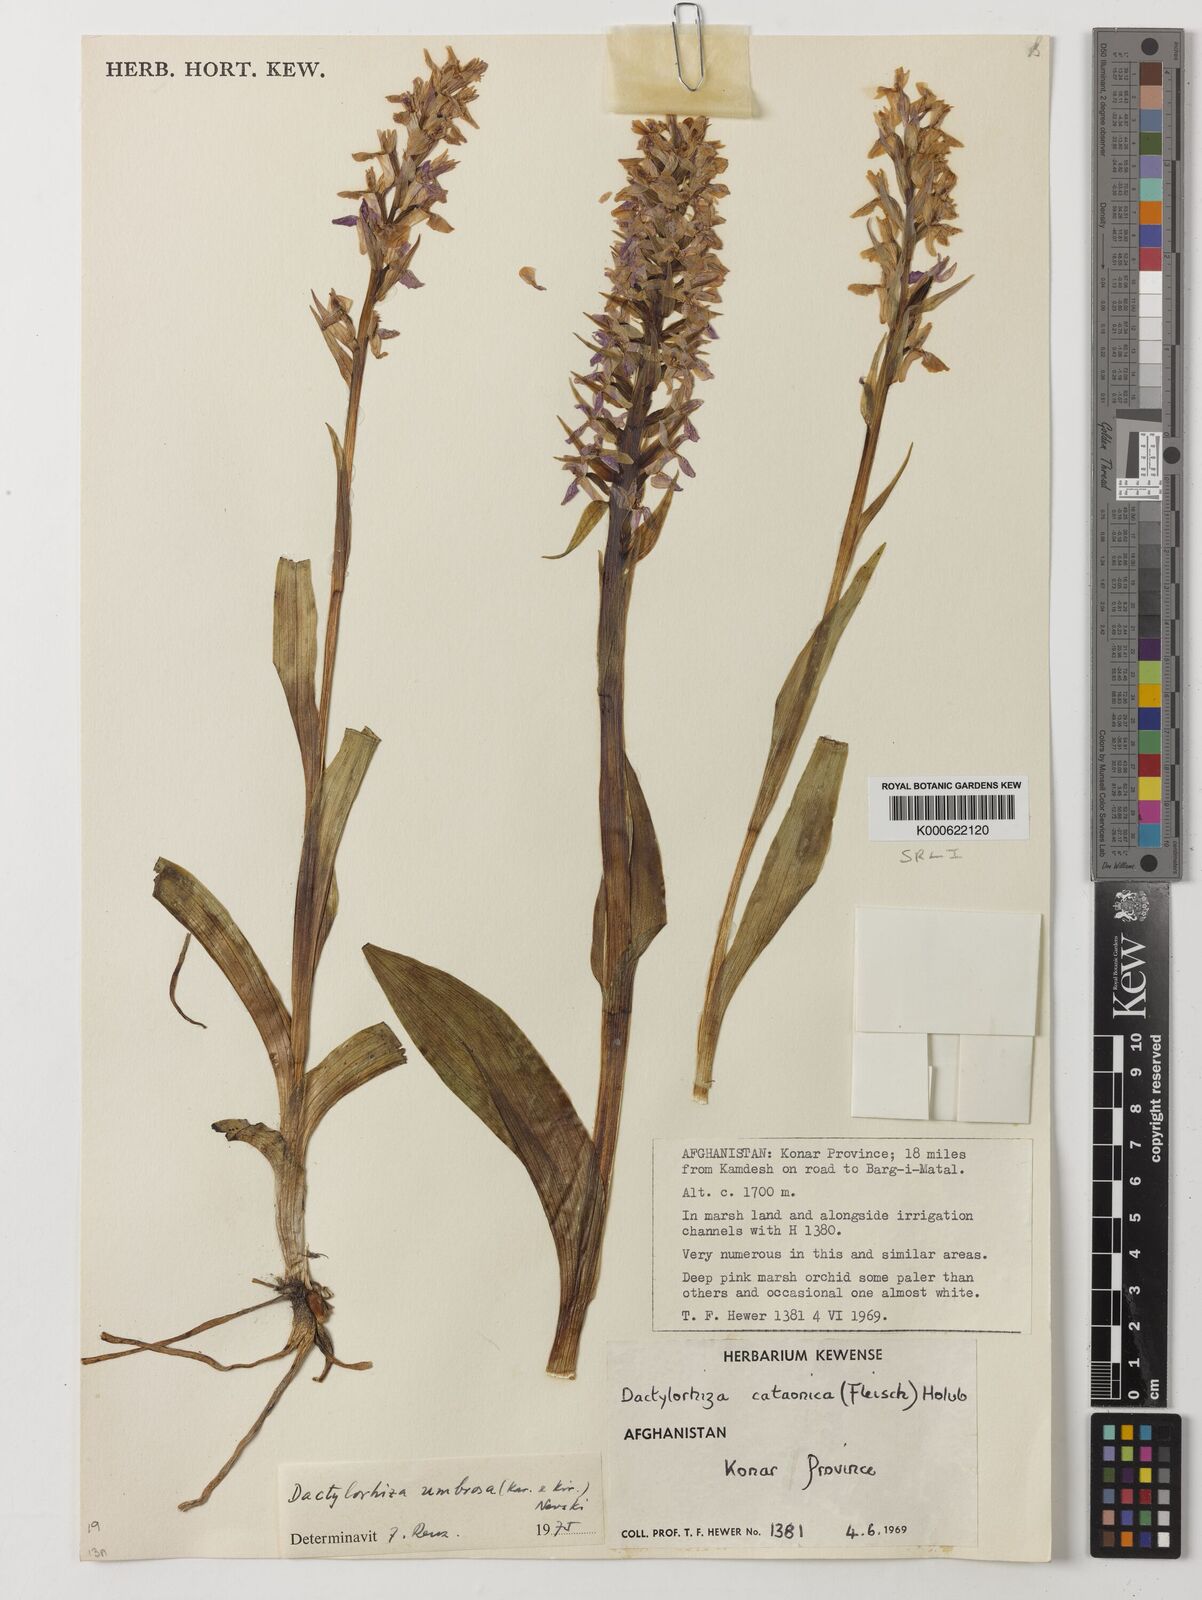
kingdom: Plantae
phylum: Tracheophyta
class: Liliopsida
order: Asparagales
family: Orchidaceae
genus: Dactylorhiza
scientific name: Dactylorhiza
